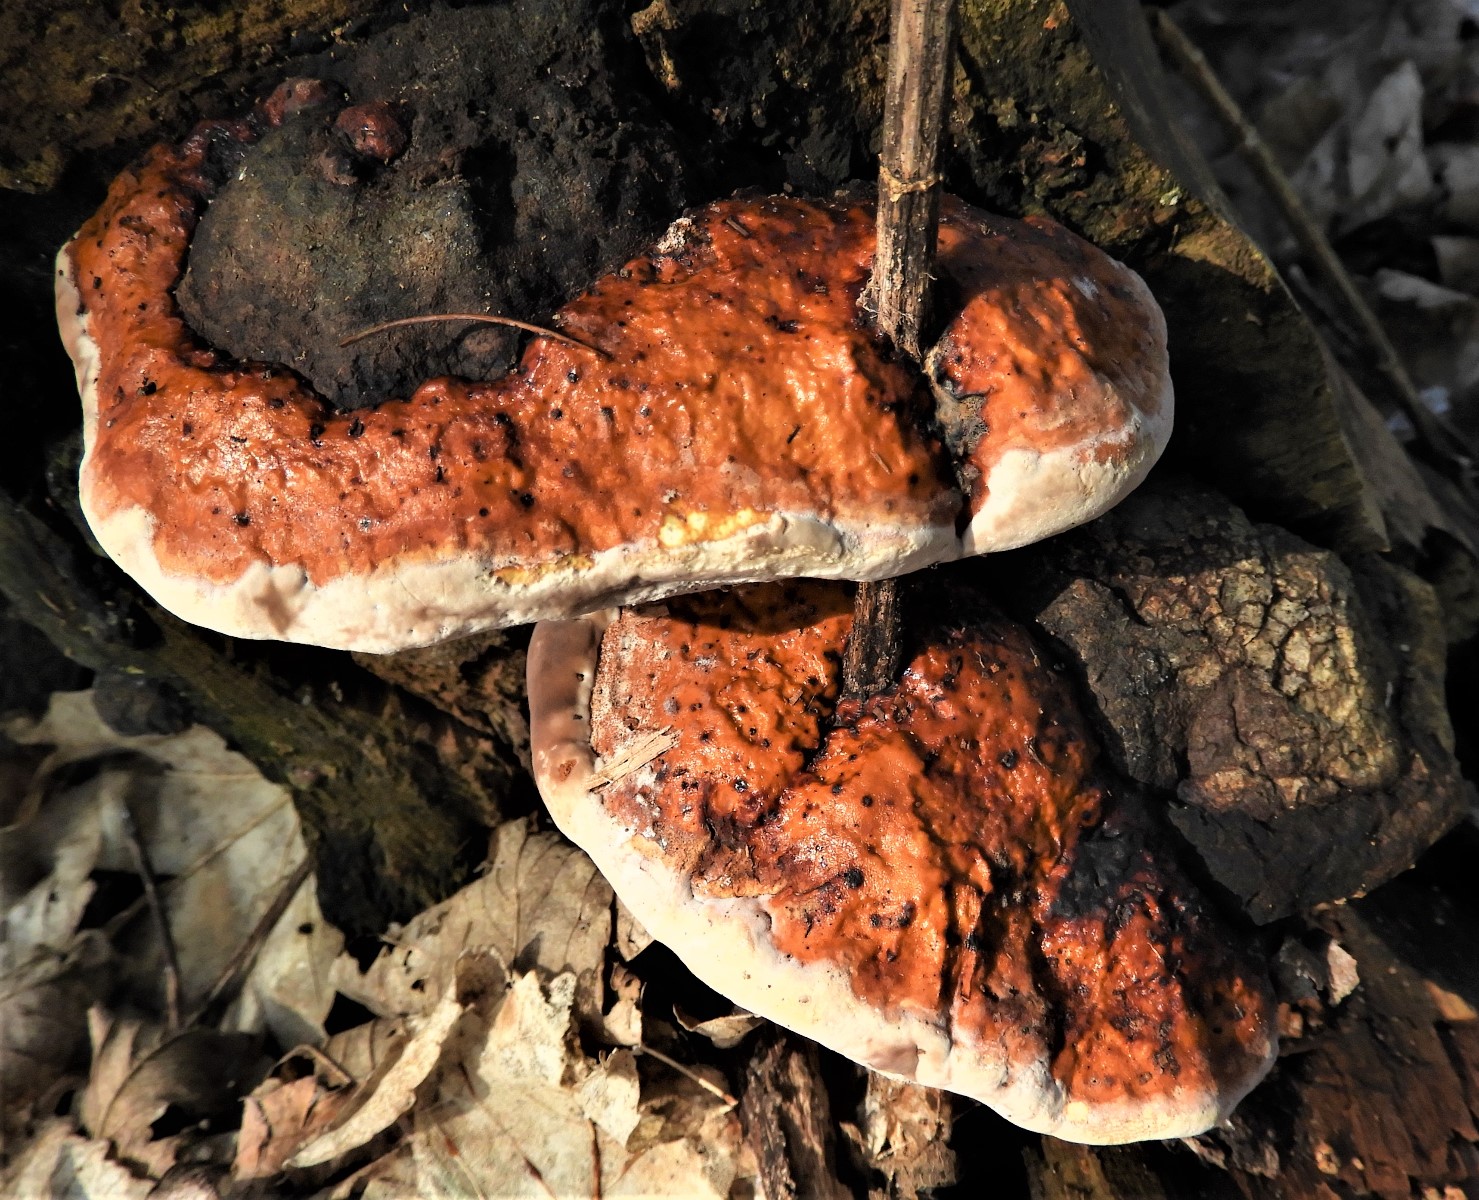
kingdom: Fungi
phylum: Basidiomycota
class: Agaricomycetes
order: Polyporales
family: Fomitopsidaceae
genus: Fomitopsis
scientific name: Fomitopsis pinicola
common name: randbæltet hovporesvamp
